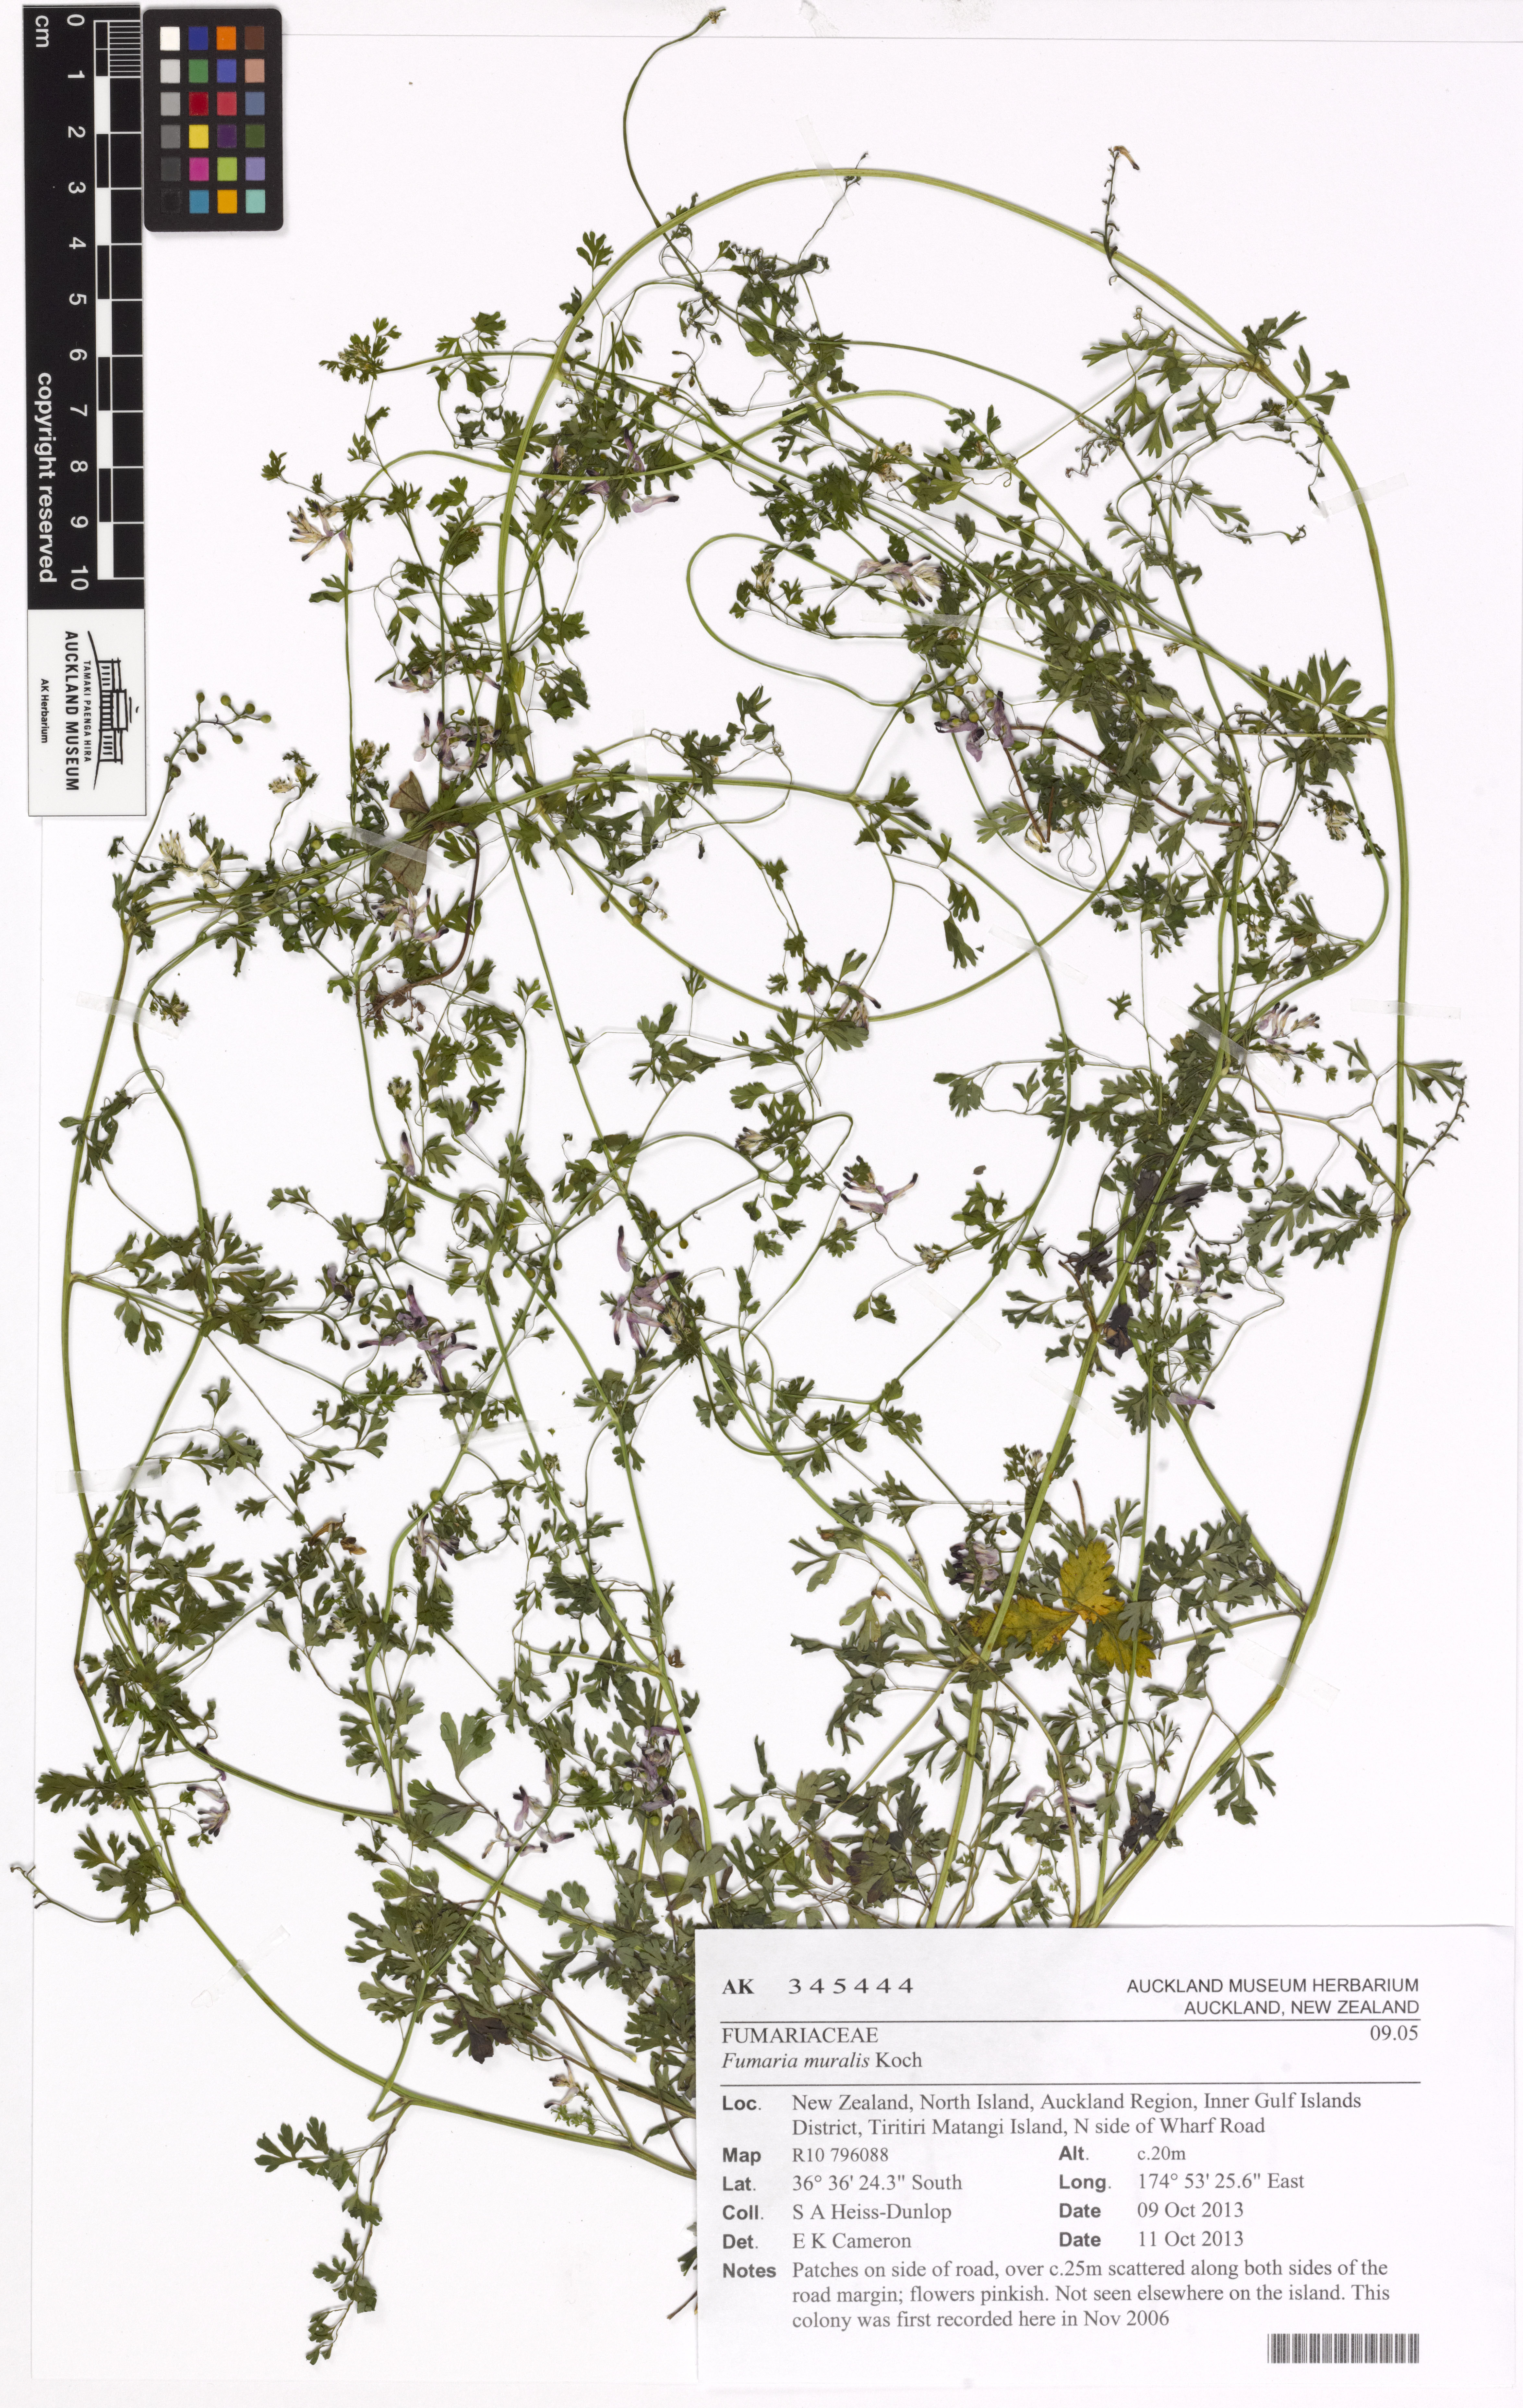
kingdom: Plantae
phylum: Tracheophyta
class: Magnoliopsida
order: Ranunculales
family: Papaveraceae
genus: Fumaria
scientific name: Fumaria muralis
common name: Common ramping-fumitory
